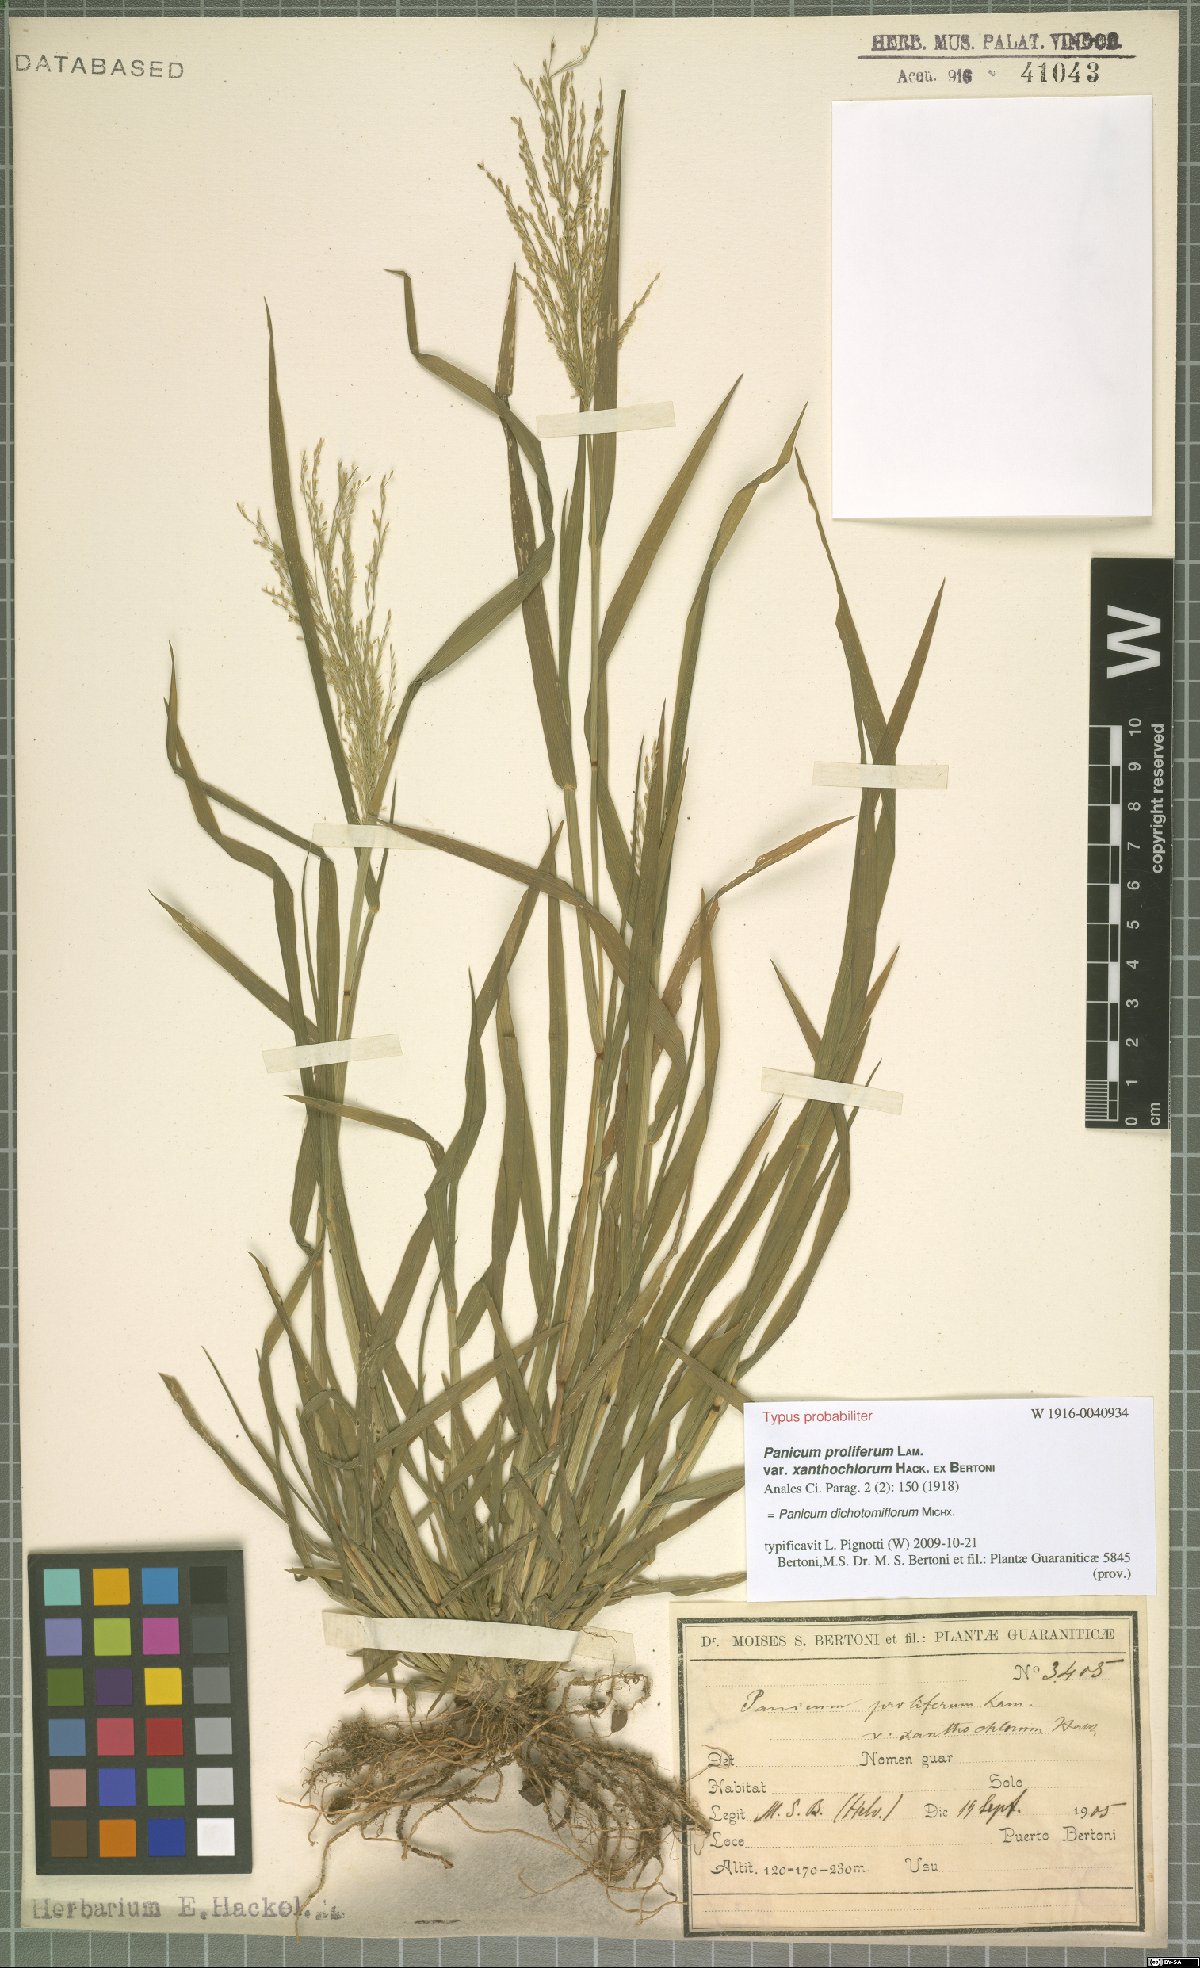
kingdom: Plantae
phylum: Tracheophyta
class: Liliopsida
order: Poales
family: Poaceae
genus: Panicum
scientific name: Panicum dichotomiflorum
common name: Autumn millet
